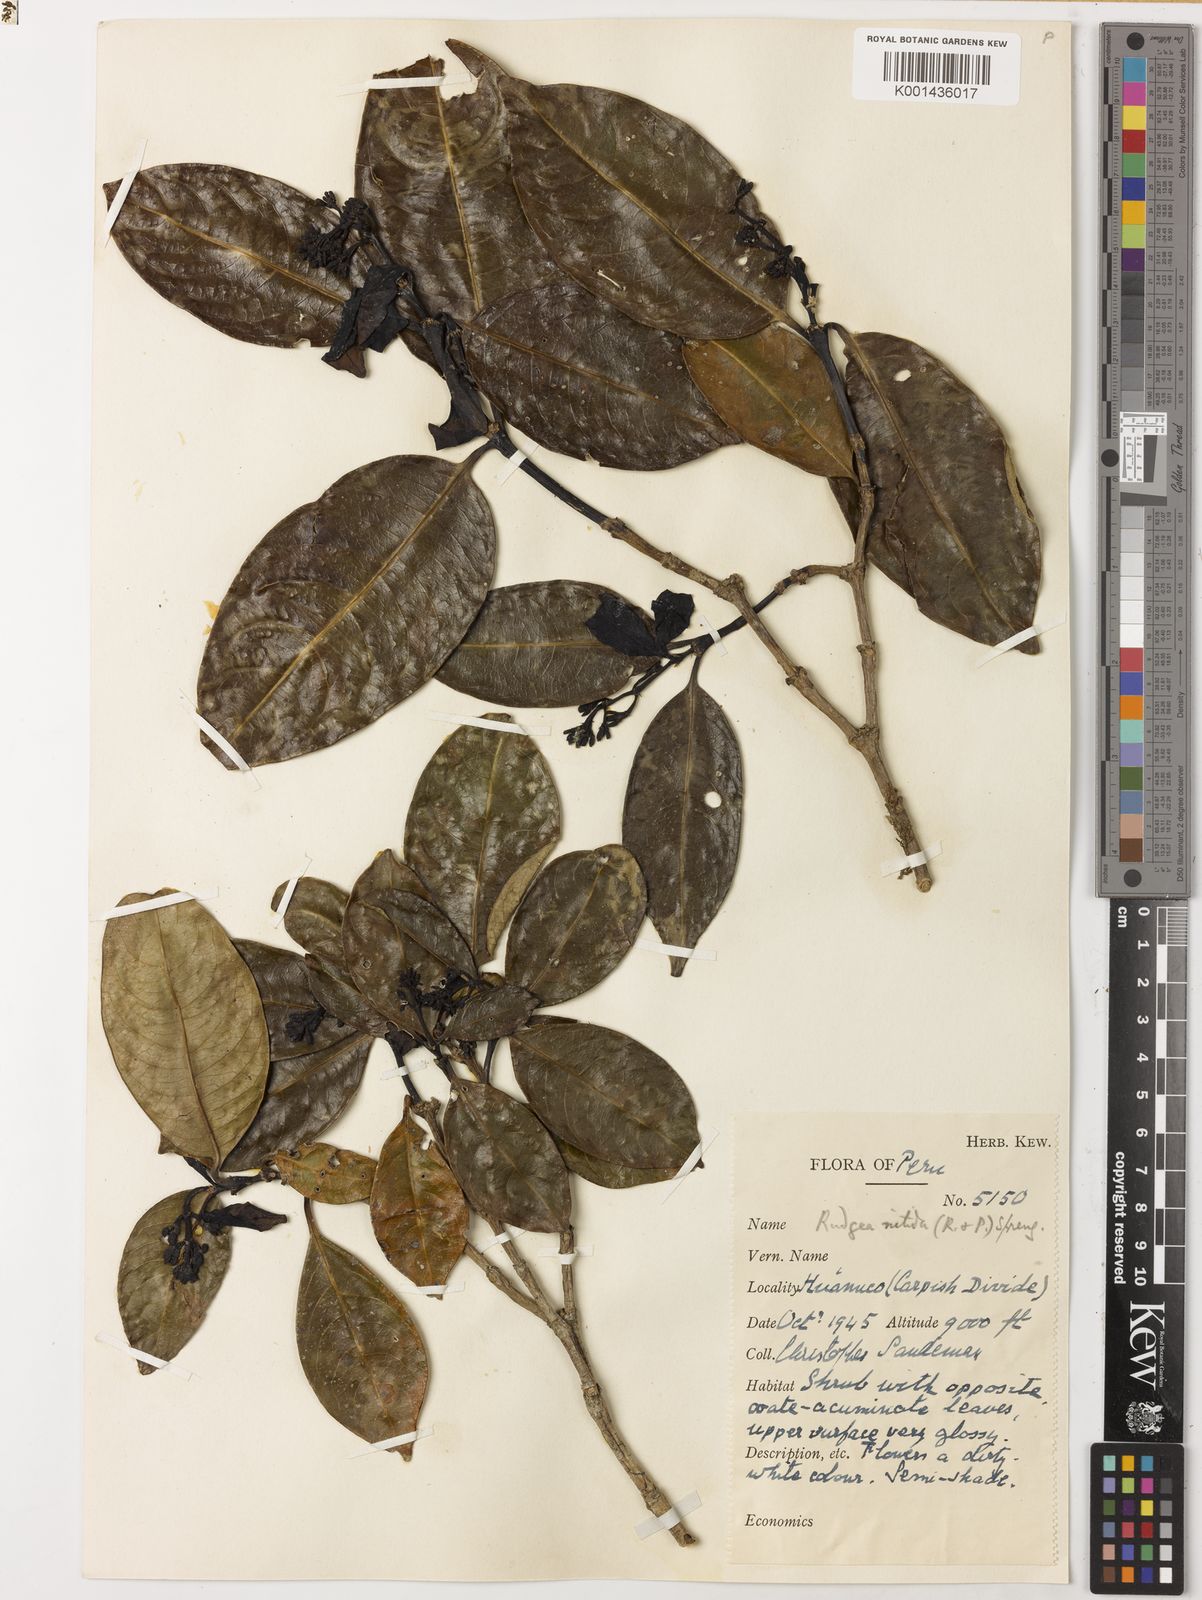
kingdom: Plantae
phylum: Tracheophyta
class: Magnoliopsida
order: Gentianales
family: Rubiaceae
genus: Rudgea
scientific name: Rudgea ciliata
